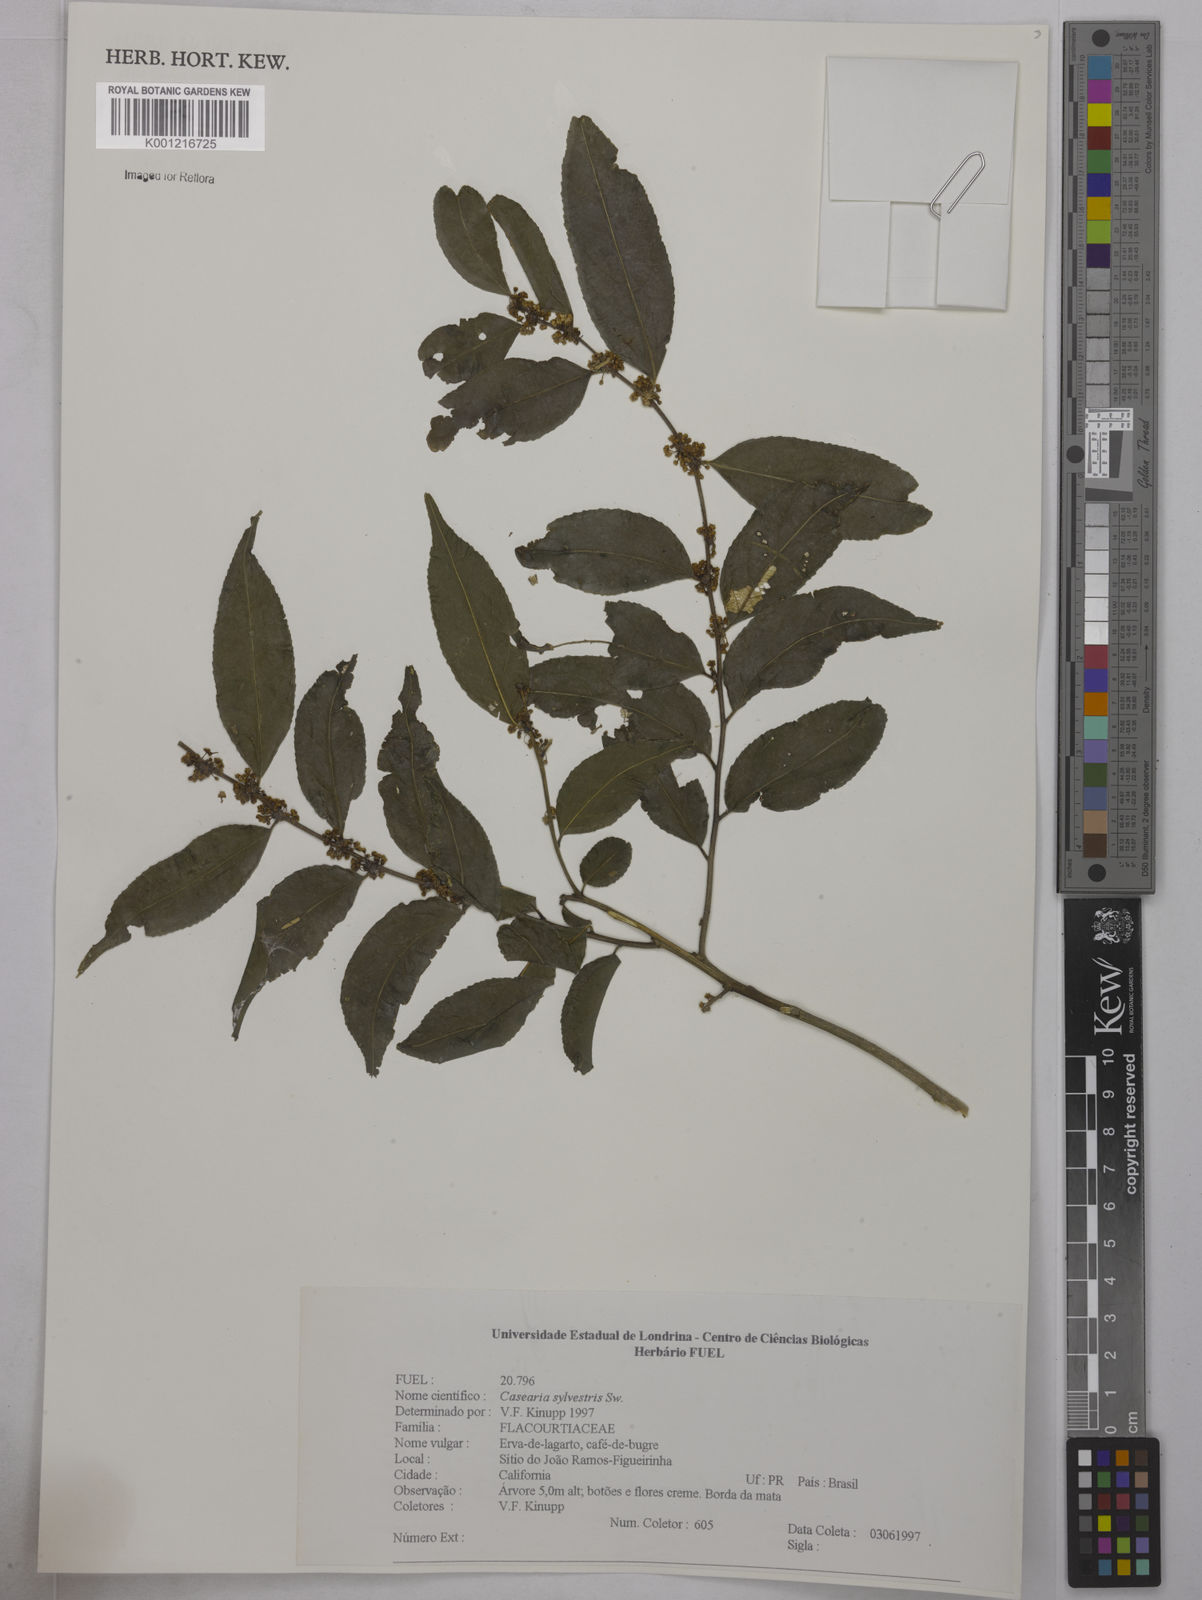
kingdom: Plantae
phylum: Tracheophyta
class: Magnoliopsida
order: Malpighiales
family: Salicaceae
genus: Casearia
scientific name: Casearia sylvestris
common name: Wild sage
